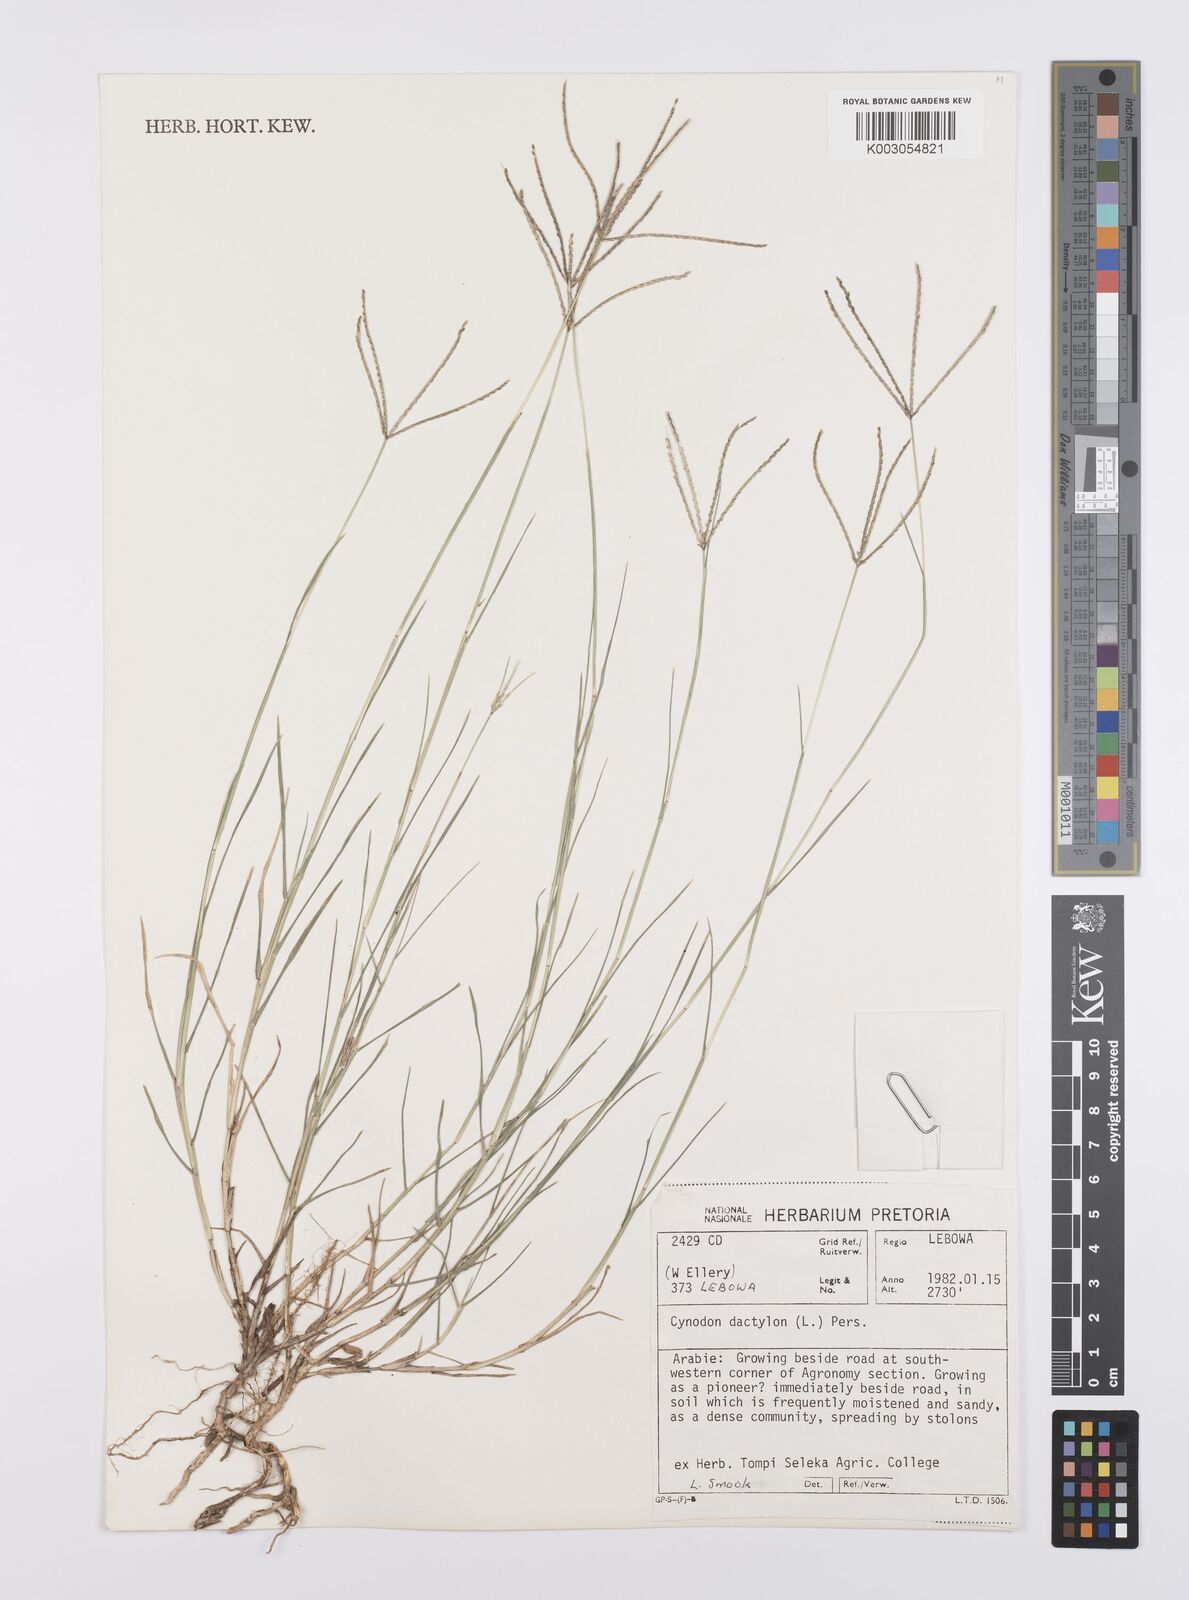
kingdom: Plantae
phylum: Tracheophyta
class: Liliopsida
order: Poales
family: Poaceae
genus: Cynodon
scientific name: Cynodon dactylon
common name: Bermuda grass
